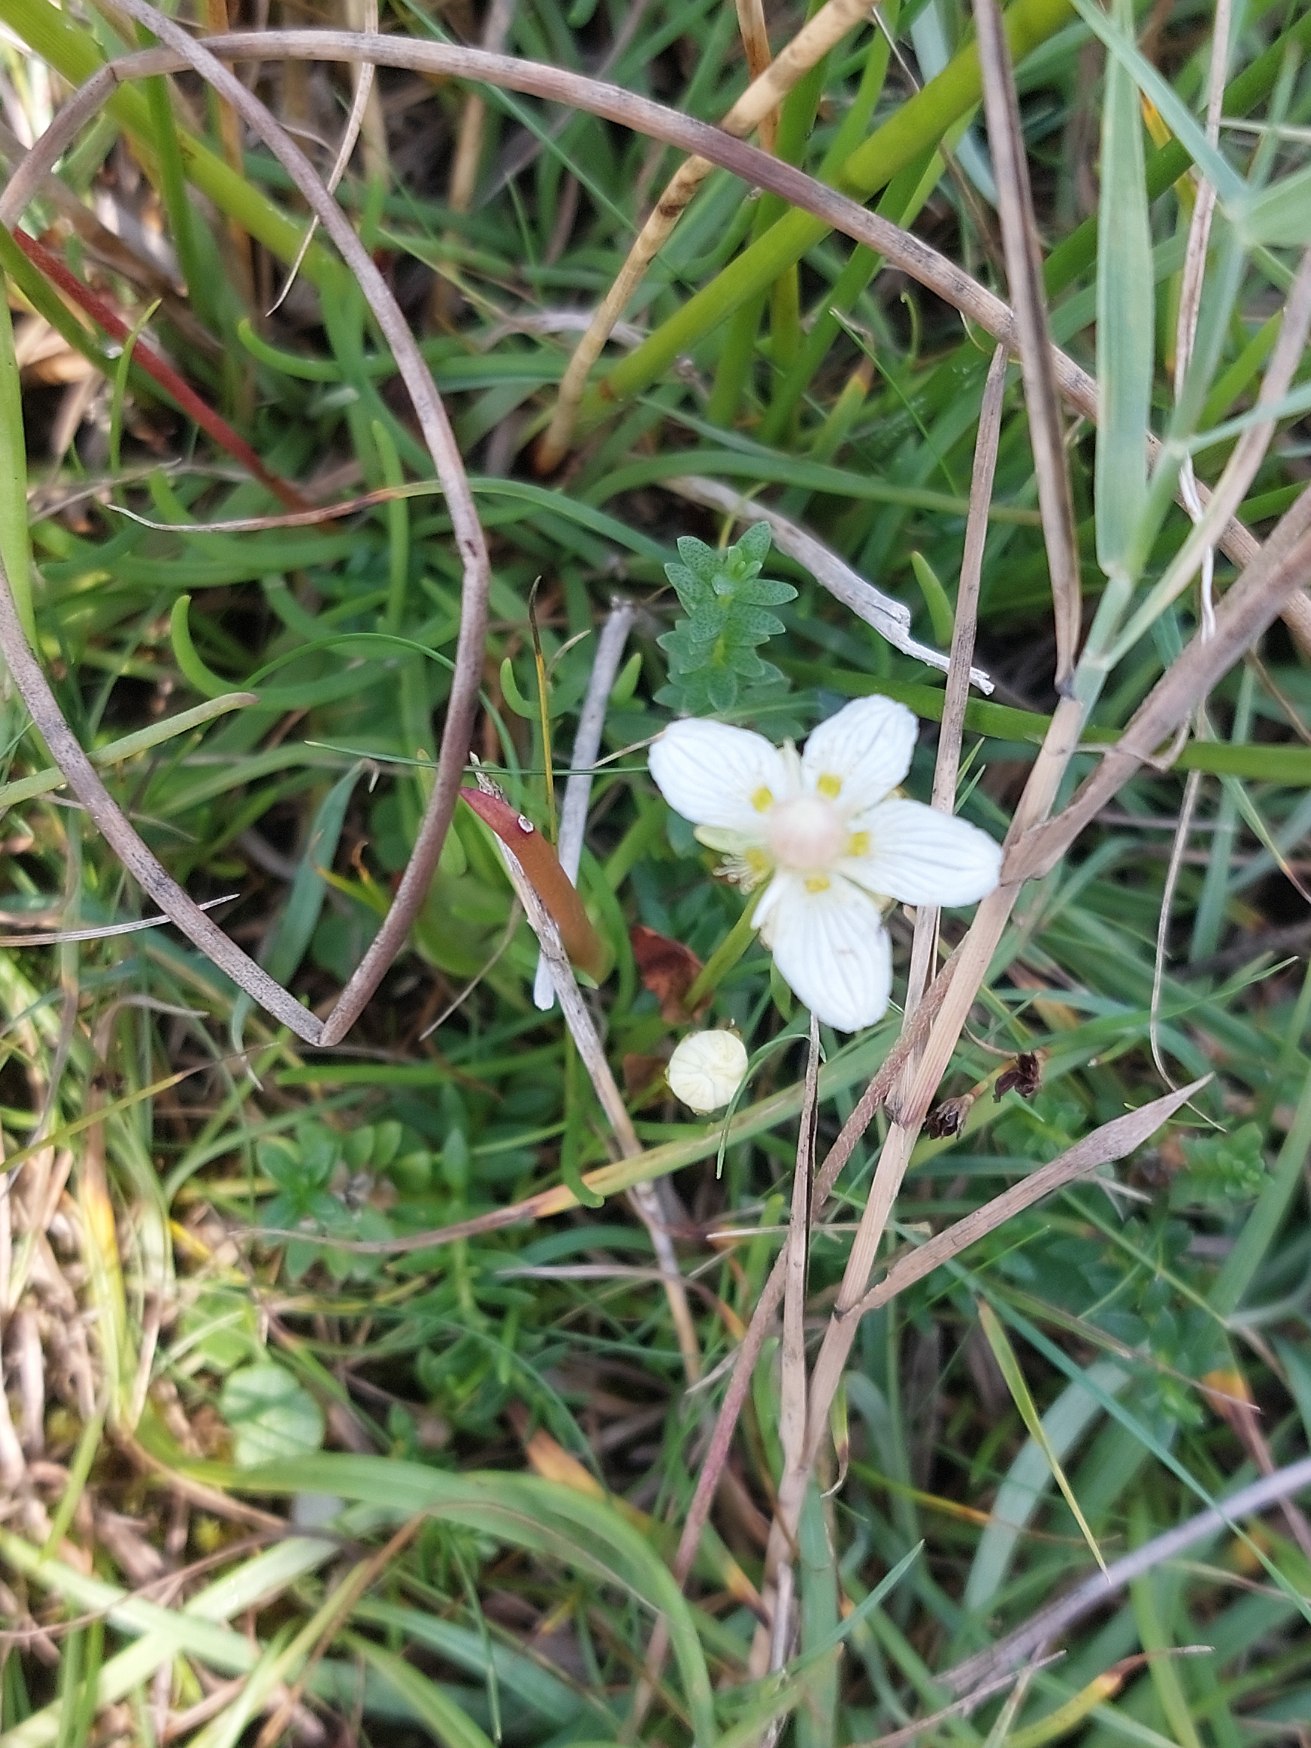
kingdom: Plantae
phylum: Tracheophyta
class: Magnoliopsida
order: Celastrales
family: Parnassiaceae
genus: Parnassia
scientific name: Parnassia palustris
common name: Leverurt
